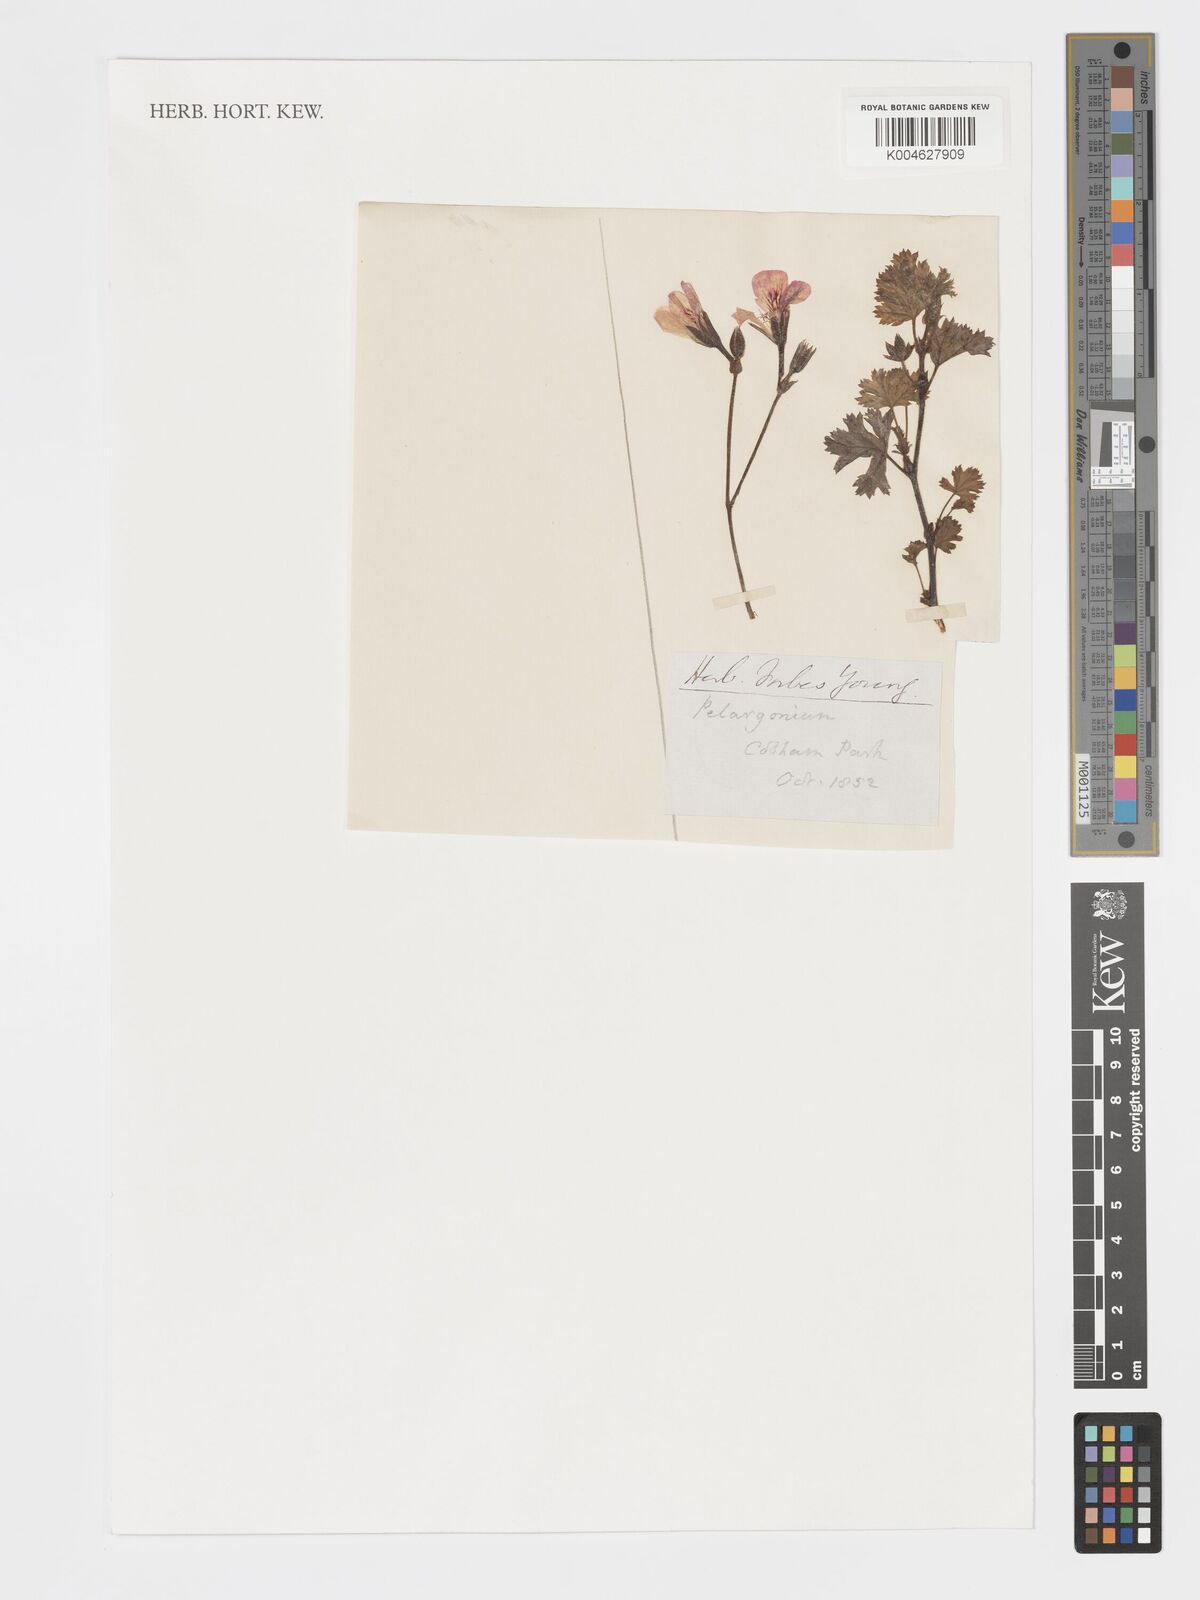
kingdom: Plantae
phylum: Tracheophyta
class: Magnoliopsida
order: Geraniales
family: Geraniaceae
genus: Pelargonium
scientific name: Pelargonium
